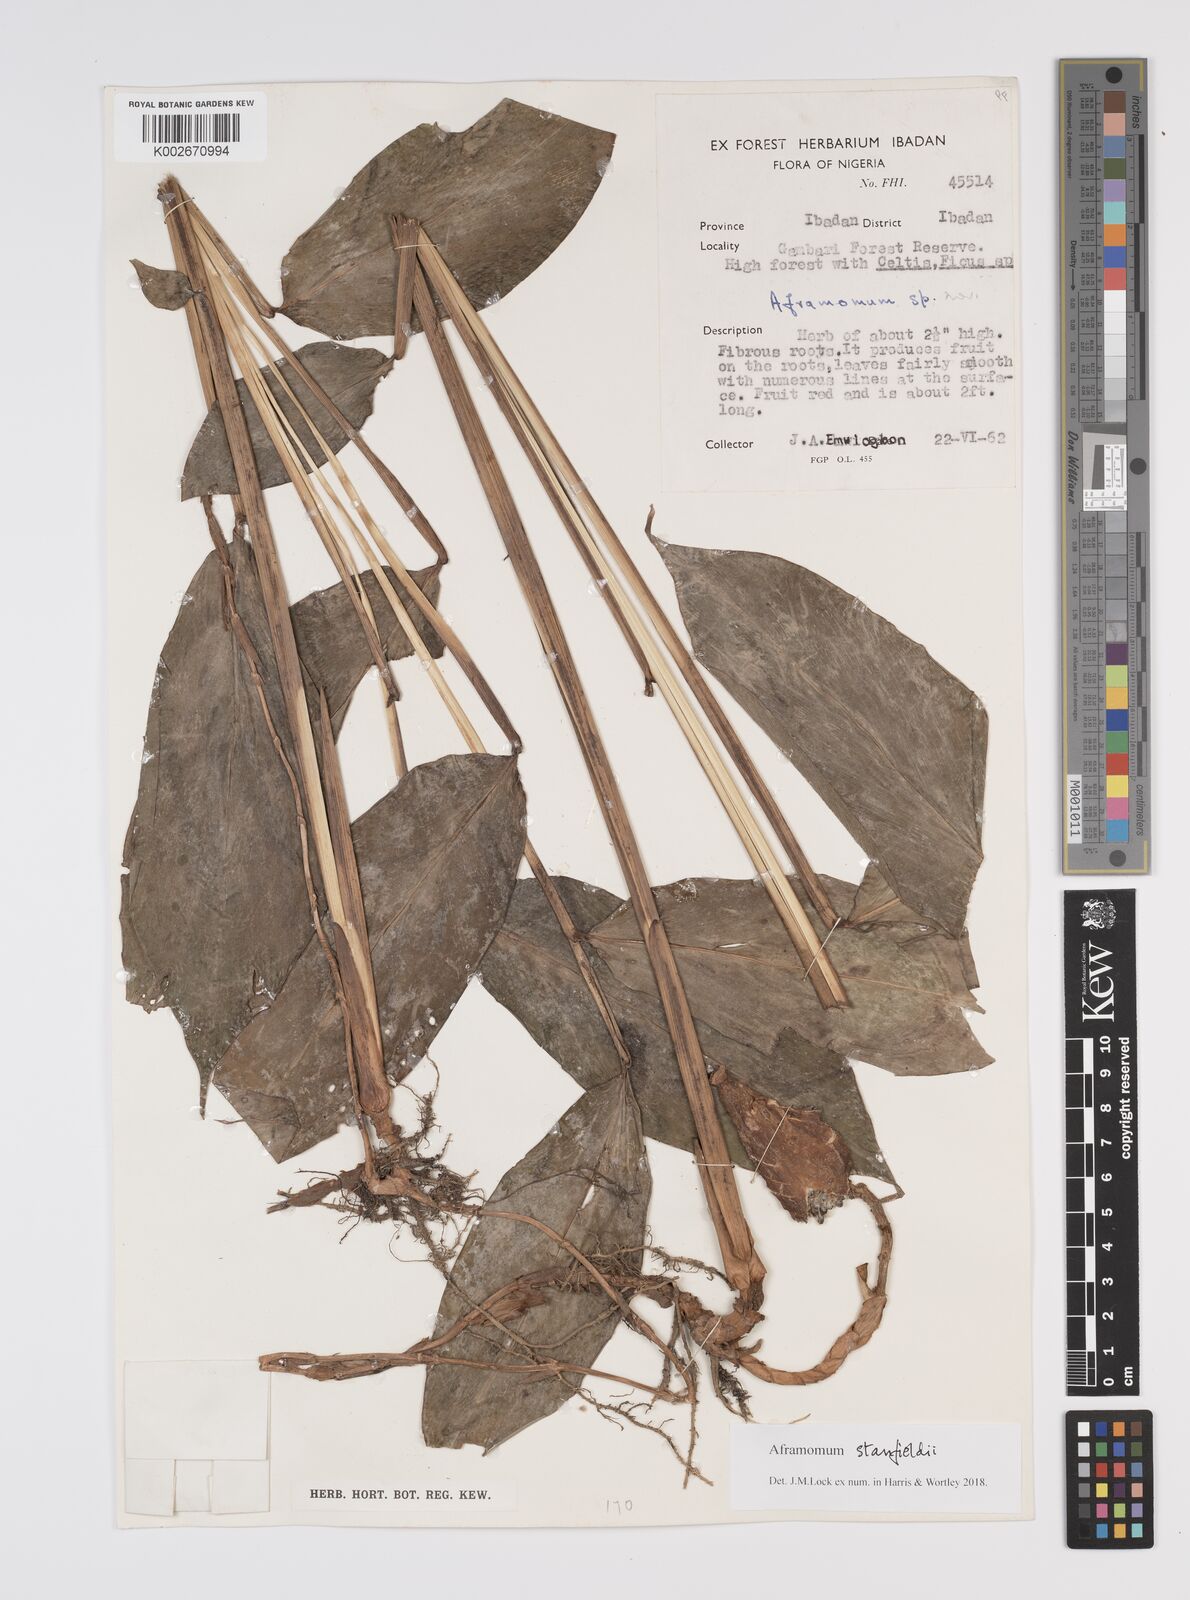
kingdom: Plantae
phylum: Tracheophyta
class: Liliopsida
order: Zingiberales
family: Zingiberaceae
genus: Aframomum
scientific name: Aframomum stanfieldii
